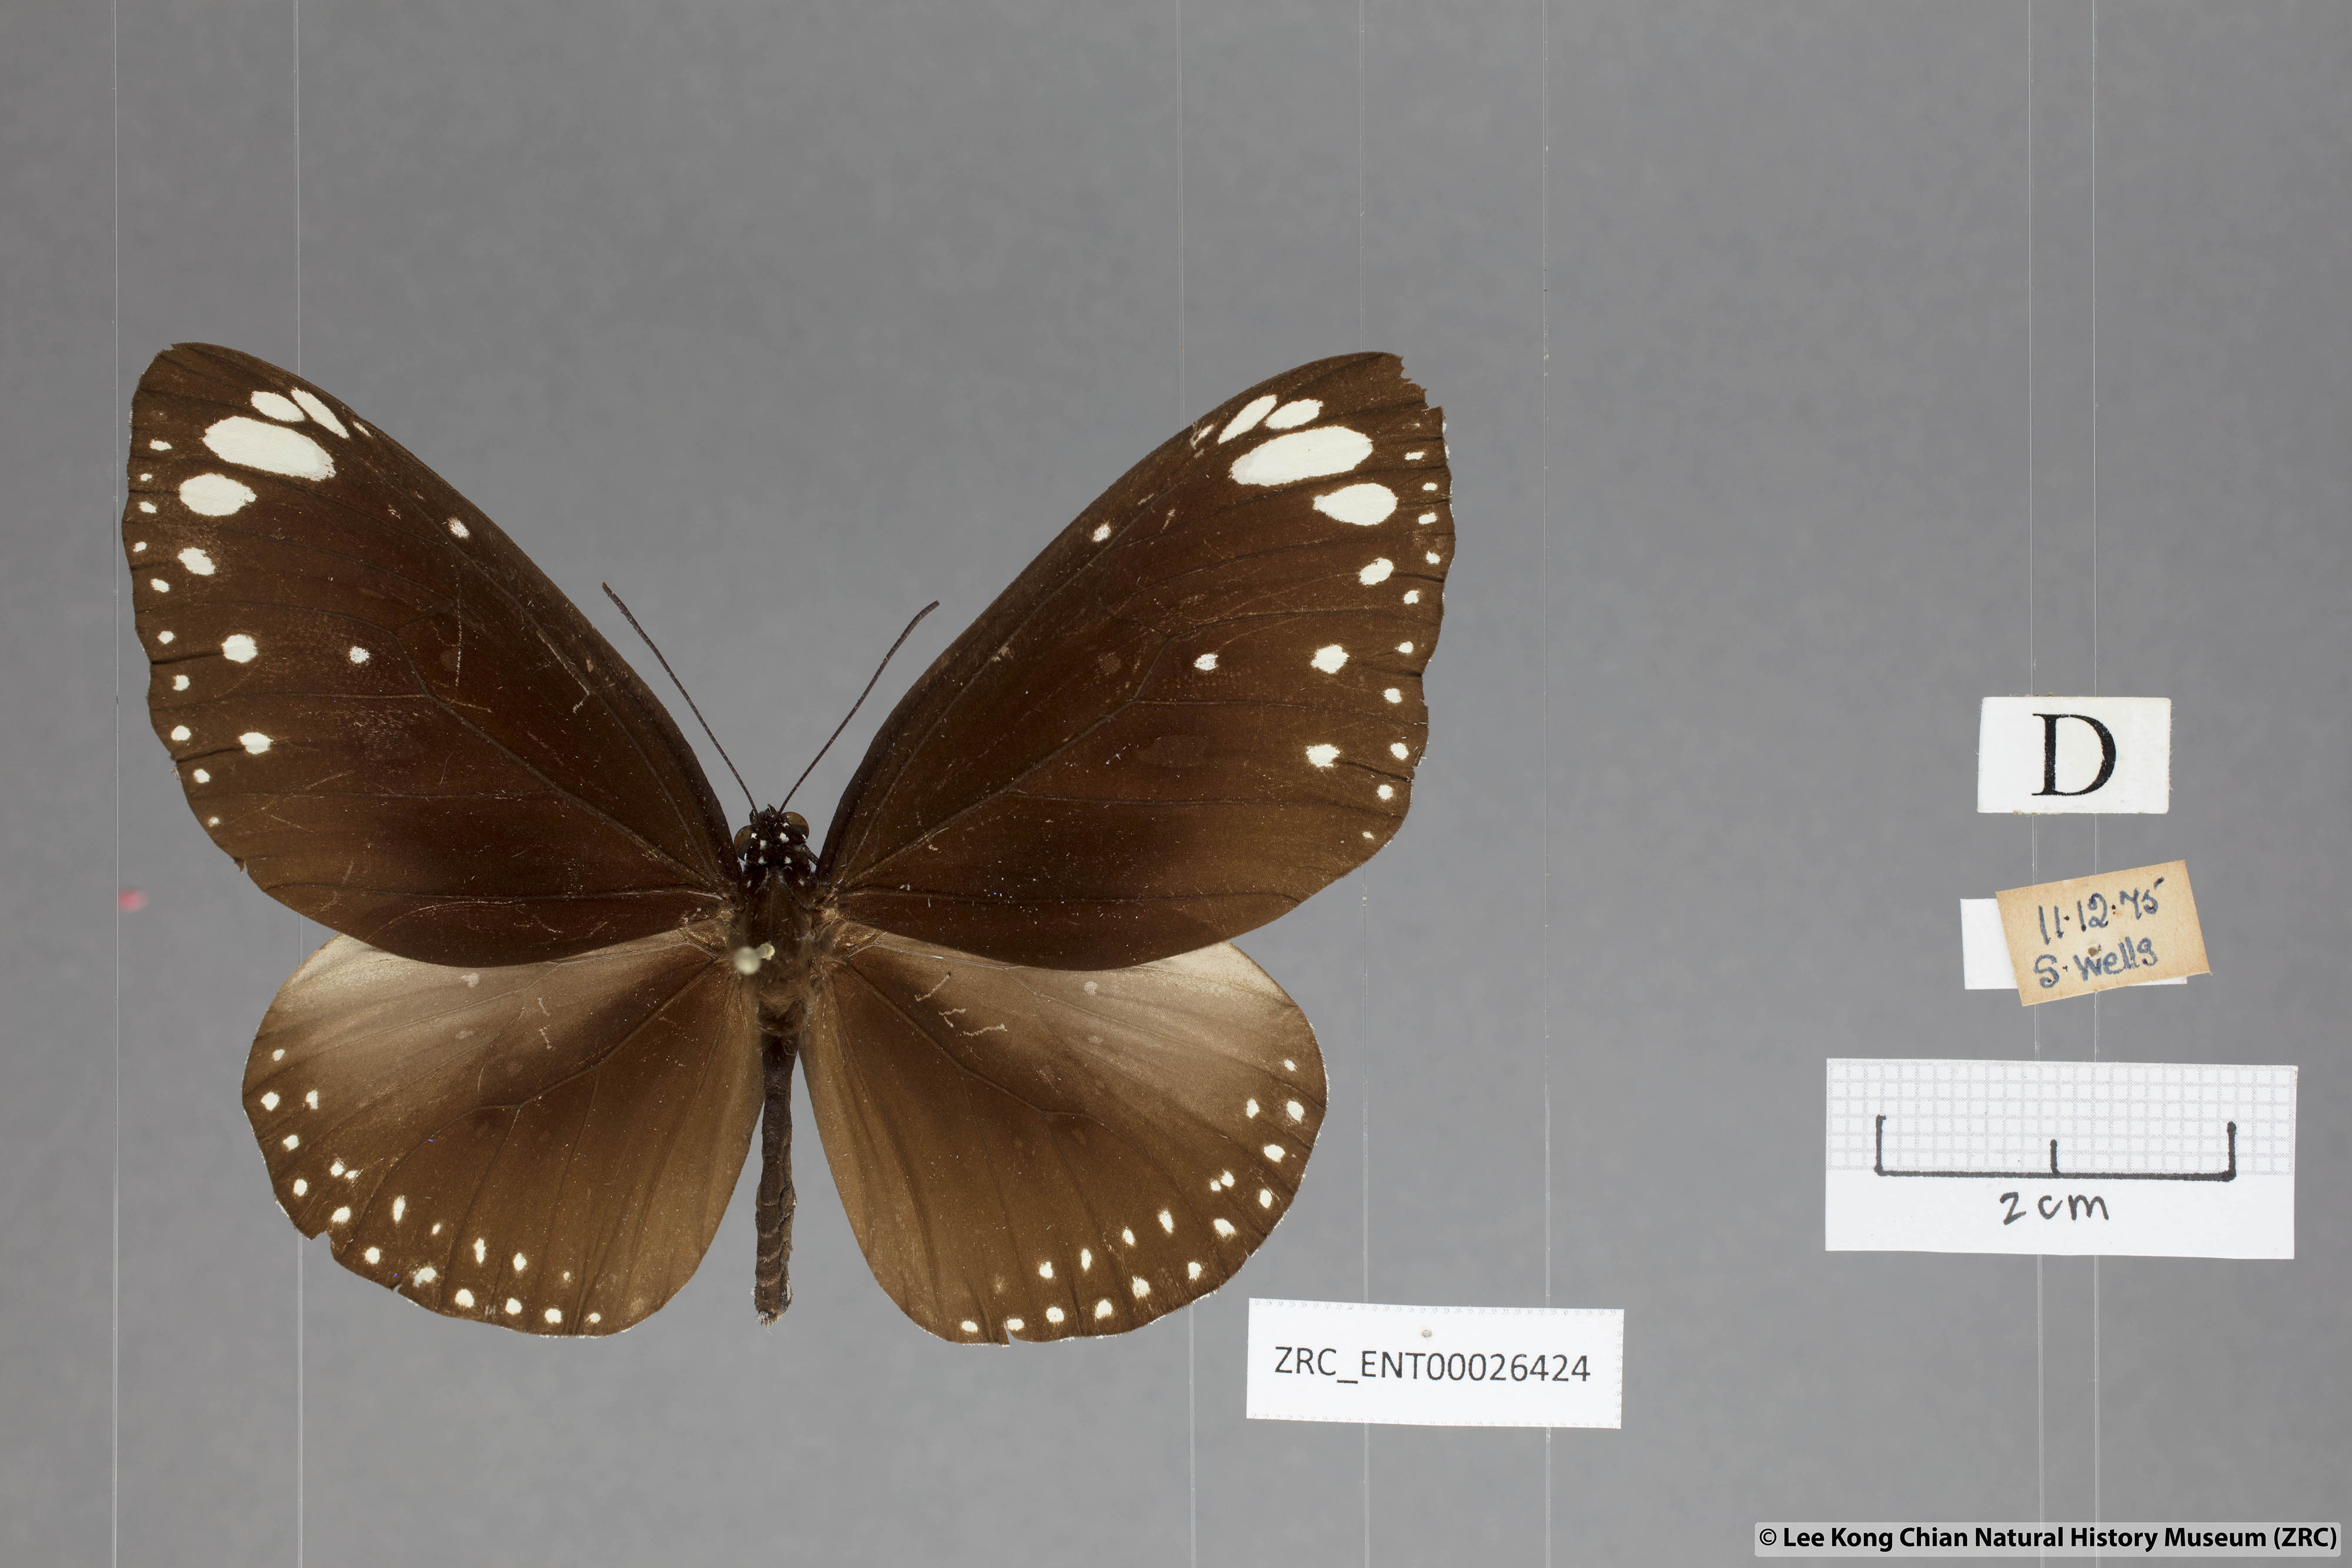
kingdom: Animalia
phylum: Arthropoda
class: Insecta
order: Lepidoptera
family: Nymphalidae
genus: Euploea
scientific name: Euploea crameri
